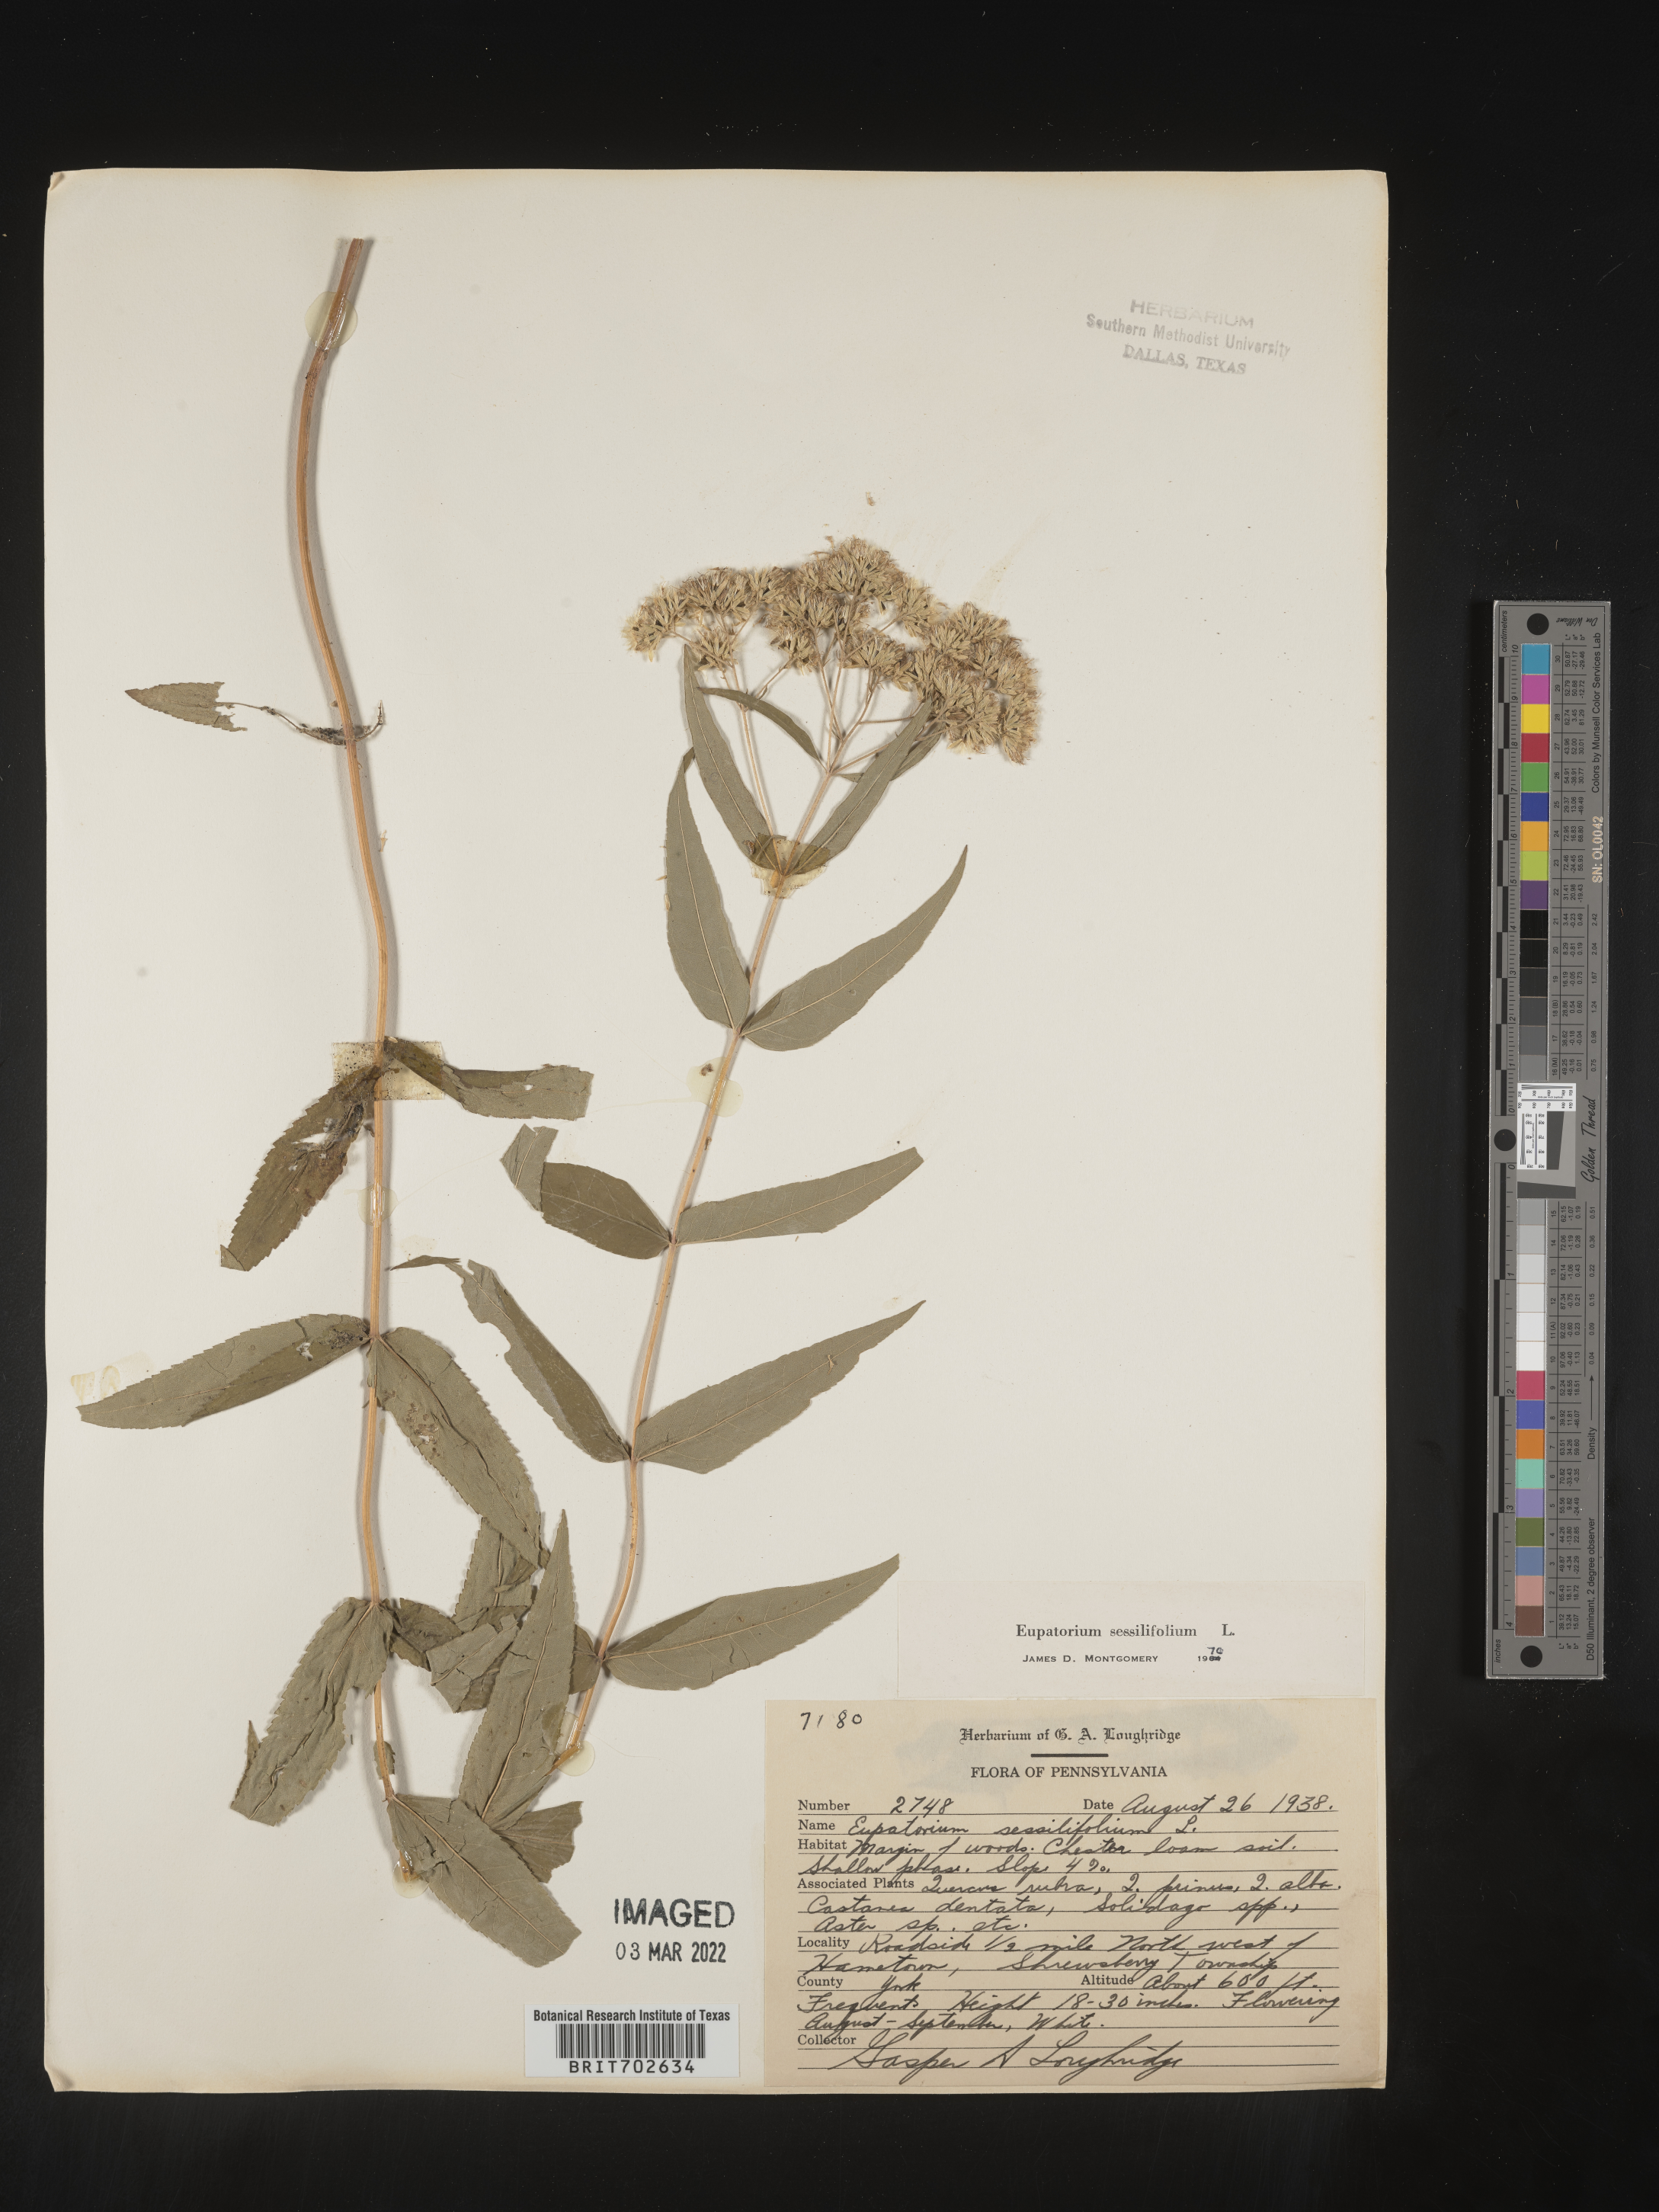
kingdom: Plantae
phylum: Tracheophyta
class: Magnoliopsida
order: Asterales
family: Asteraceae
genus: Eupatorium
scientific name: Eupatorium sessilifolium
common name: Upland boneset
